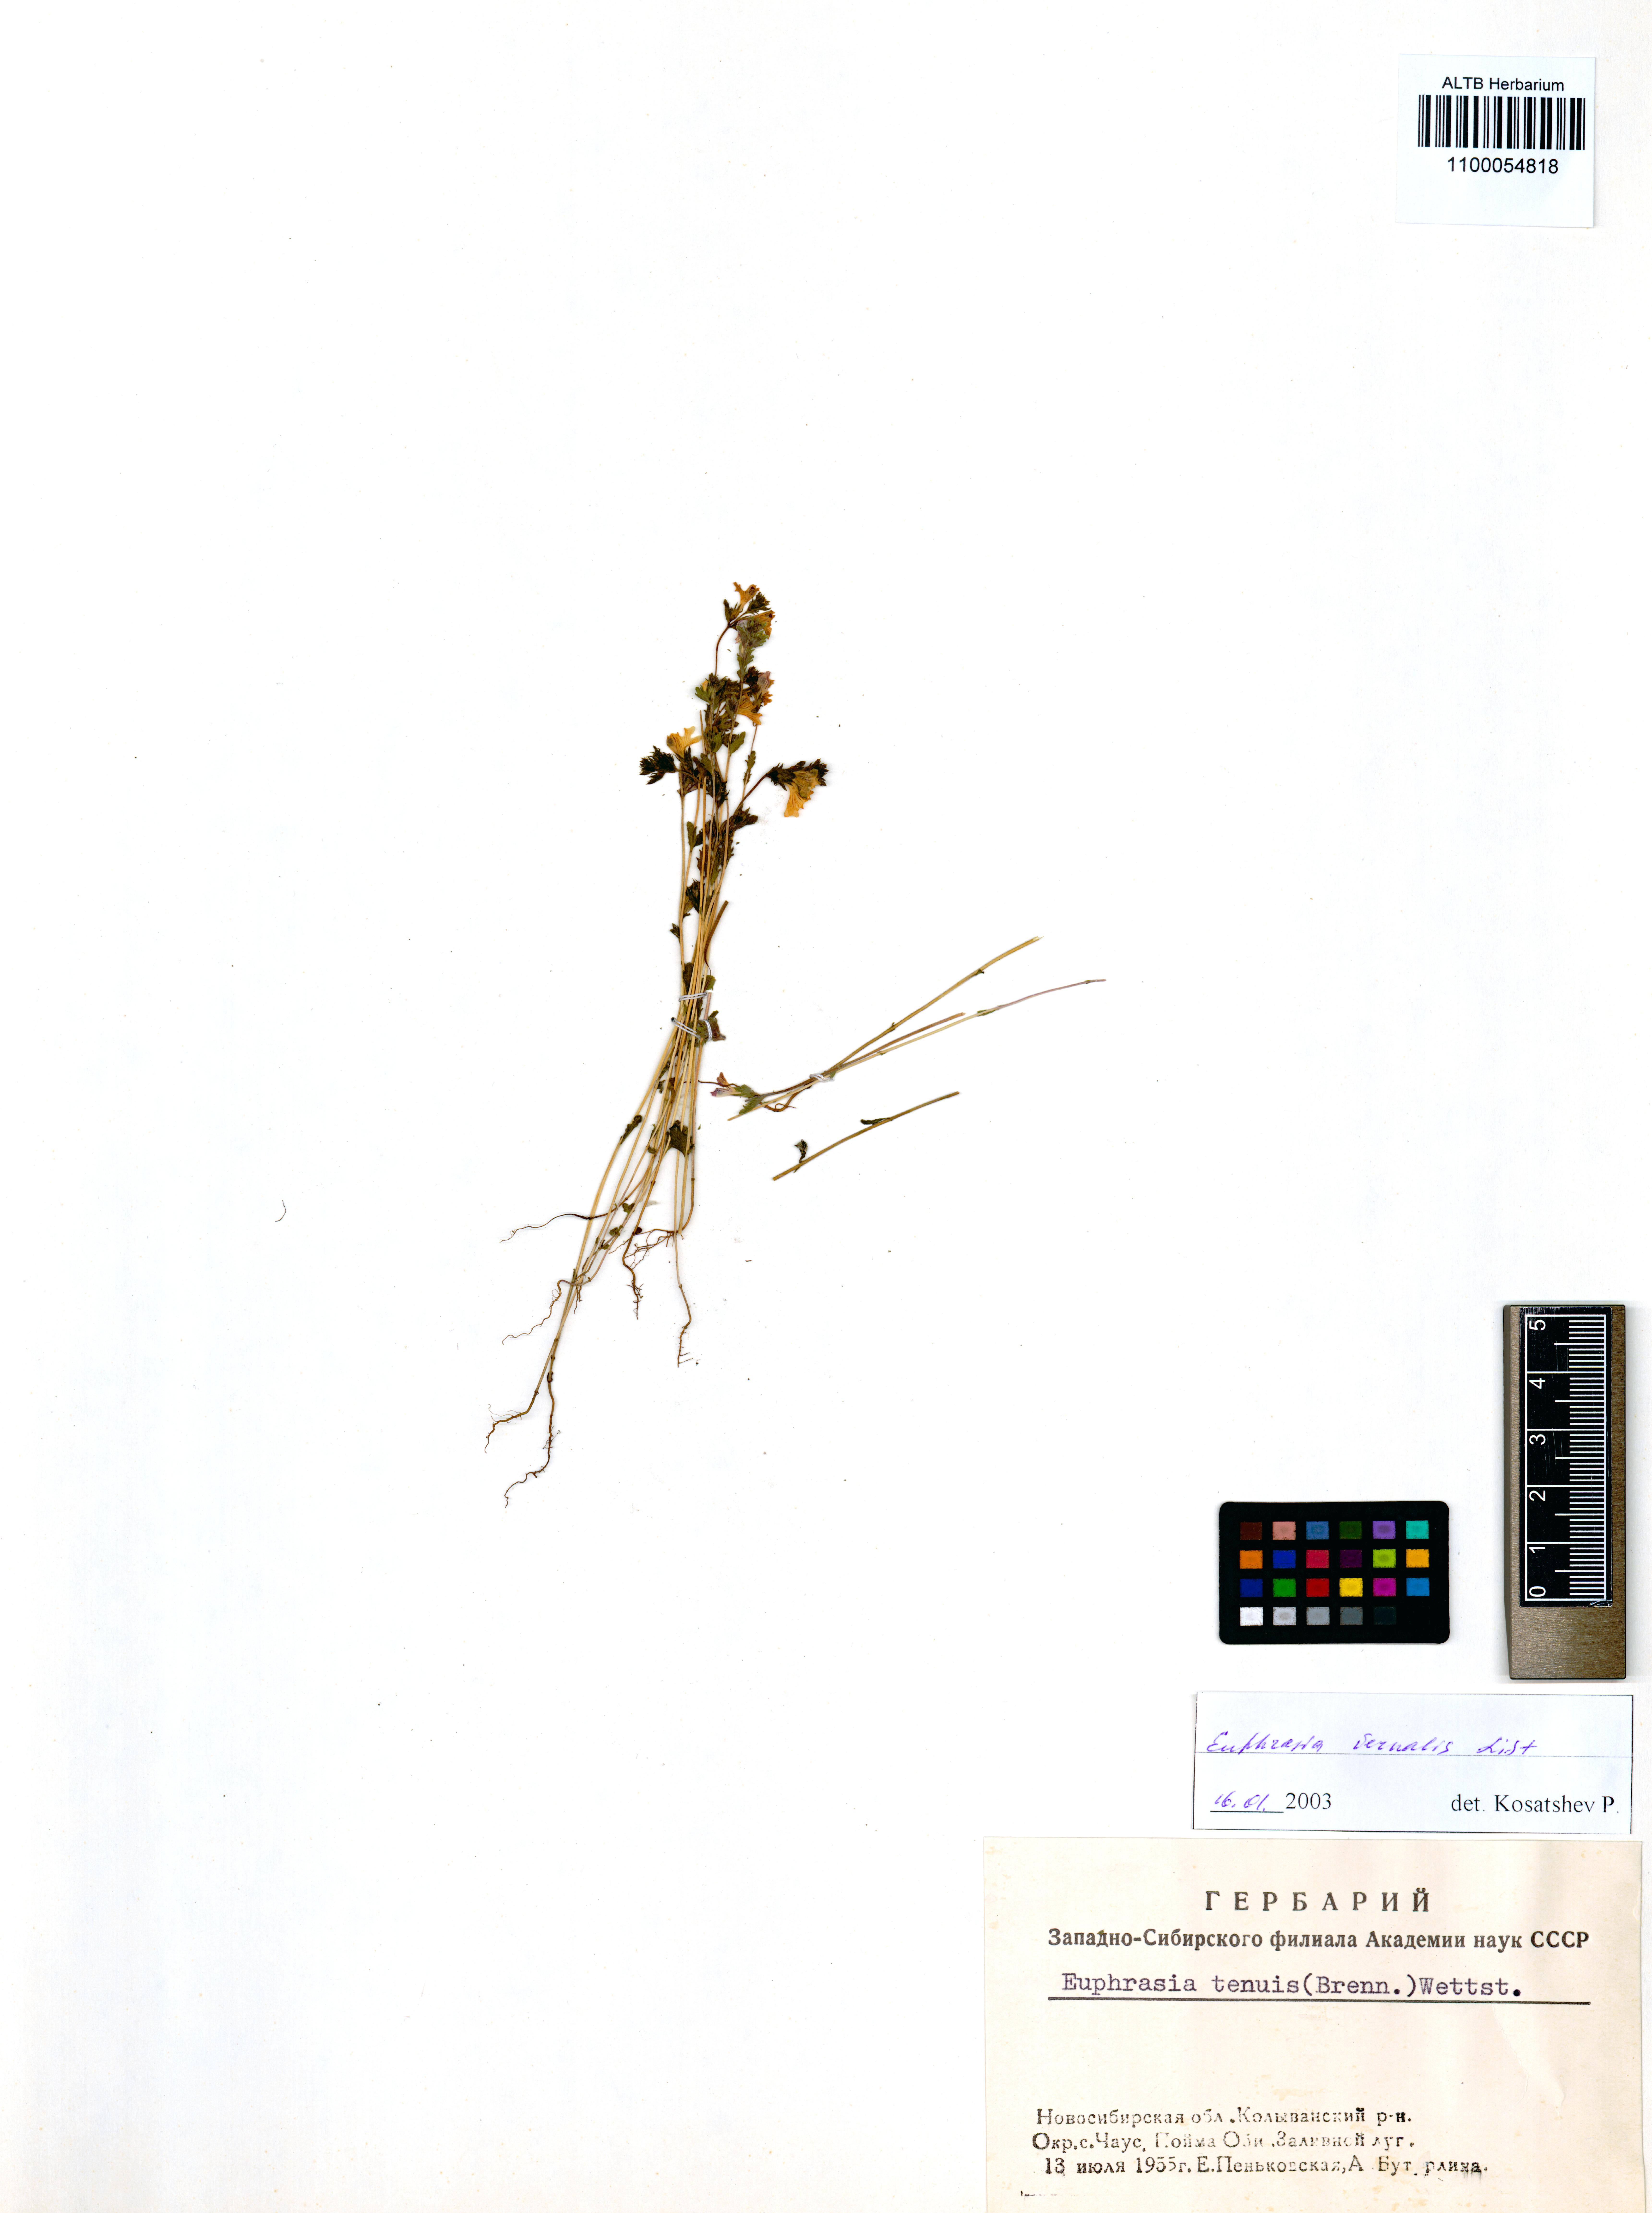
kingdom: Plantae
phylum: Tracheophyta
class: Magnoliopsida
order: Lamiales
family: Orobanchaceae
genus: Euphrasia
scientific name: Euphrasia vernalis
